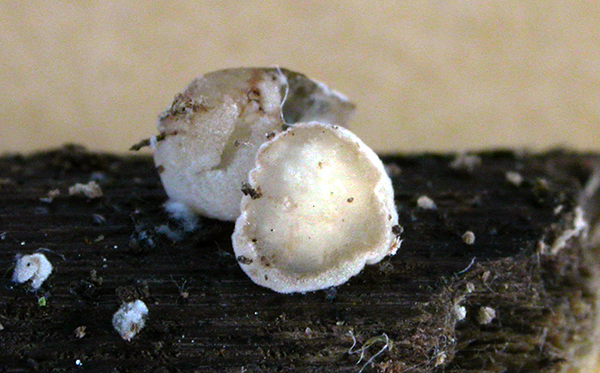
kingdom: Fungi
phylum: Basidiomycota
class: Tremellomycetes
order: Tremellales
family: Sirobasidiaceae
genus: Xenolachne
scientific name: Xenolachne longicornis
